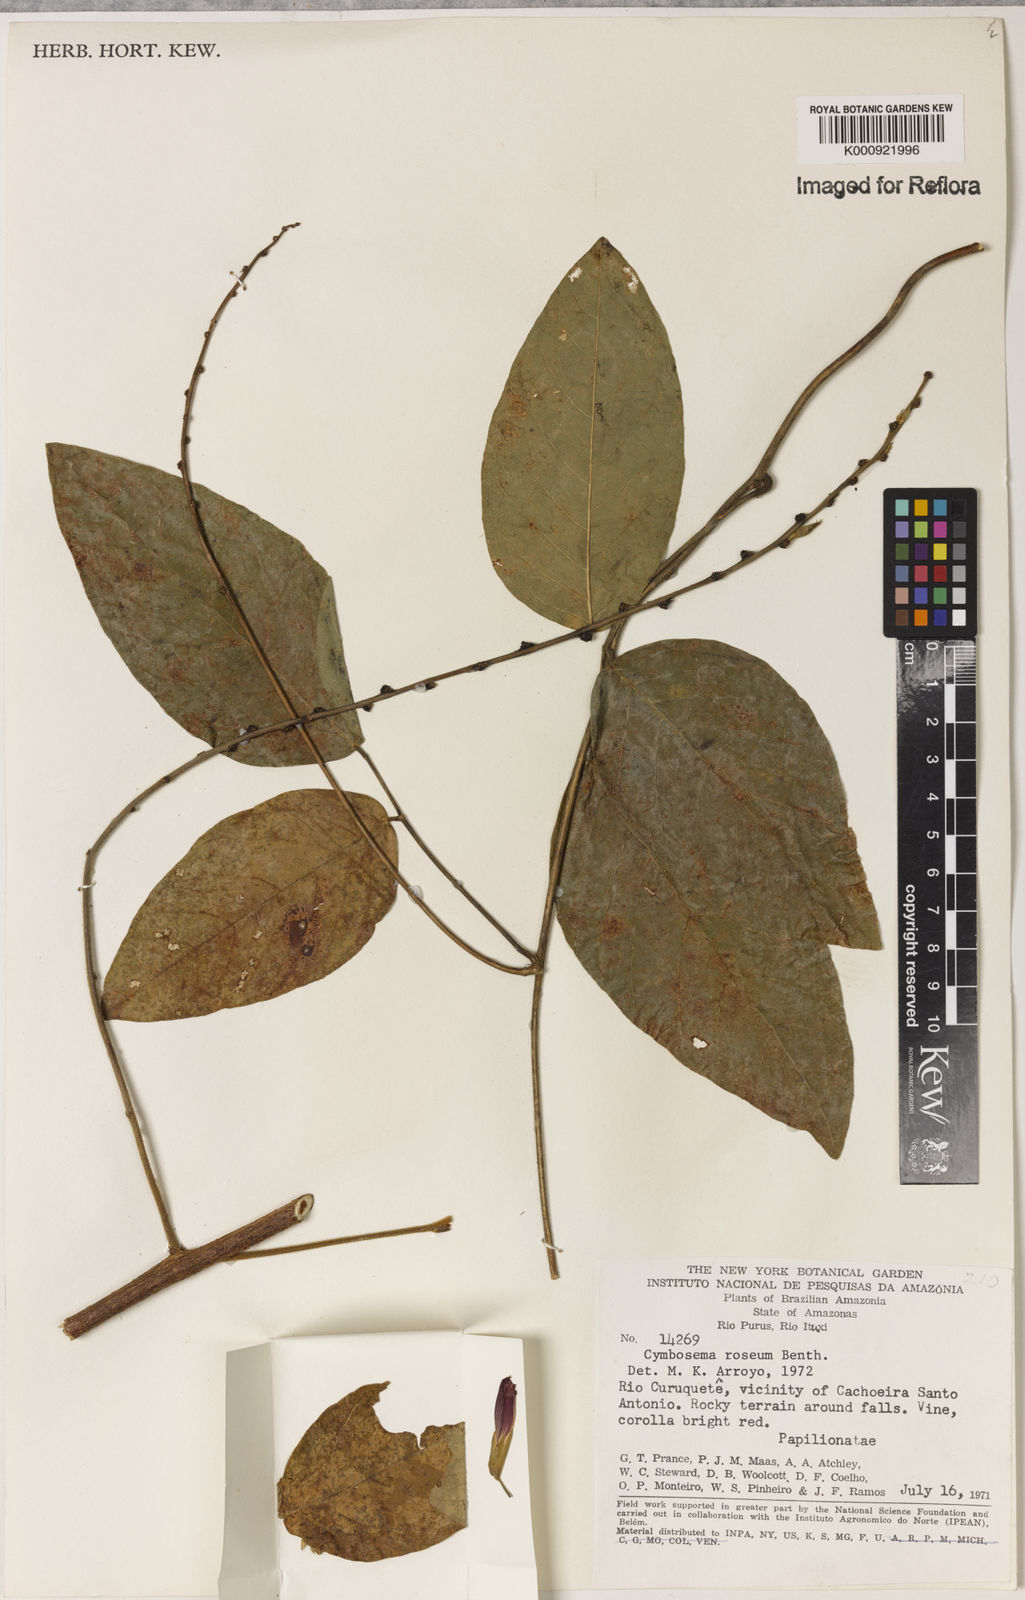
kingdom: Plantae
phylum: Tracheophyta
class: Magnoliopsida
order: Fabales
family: Fabaceae
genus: Cymbosema
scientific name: Cymbosema roseum
